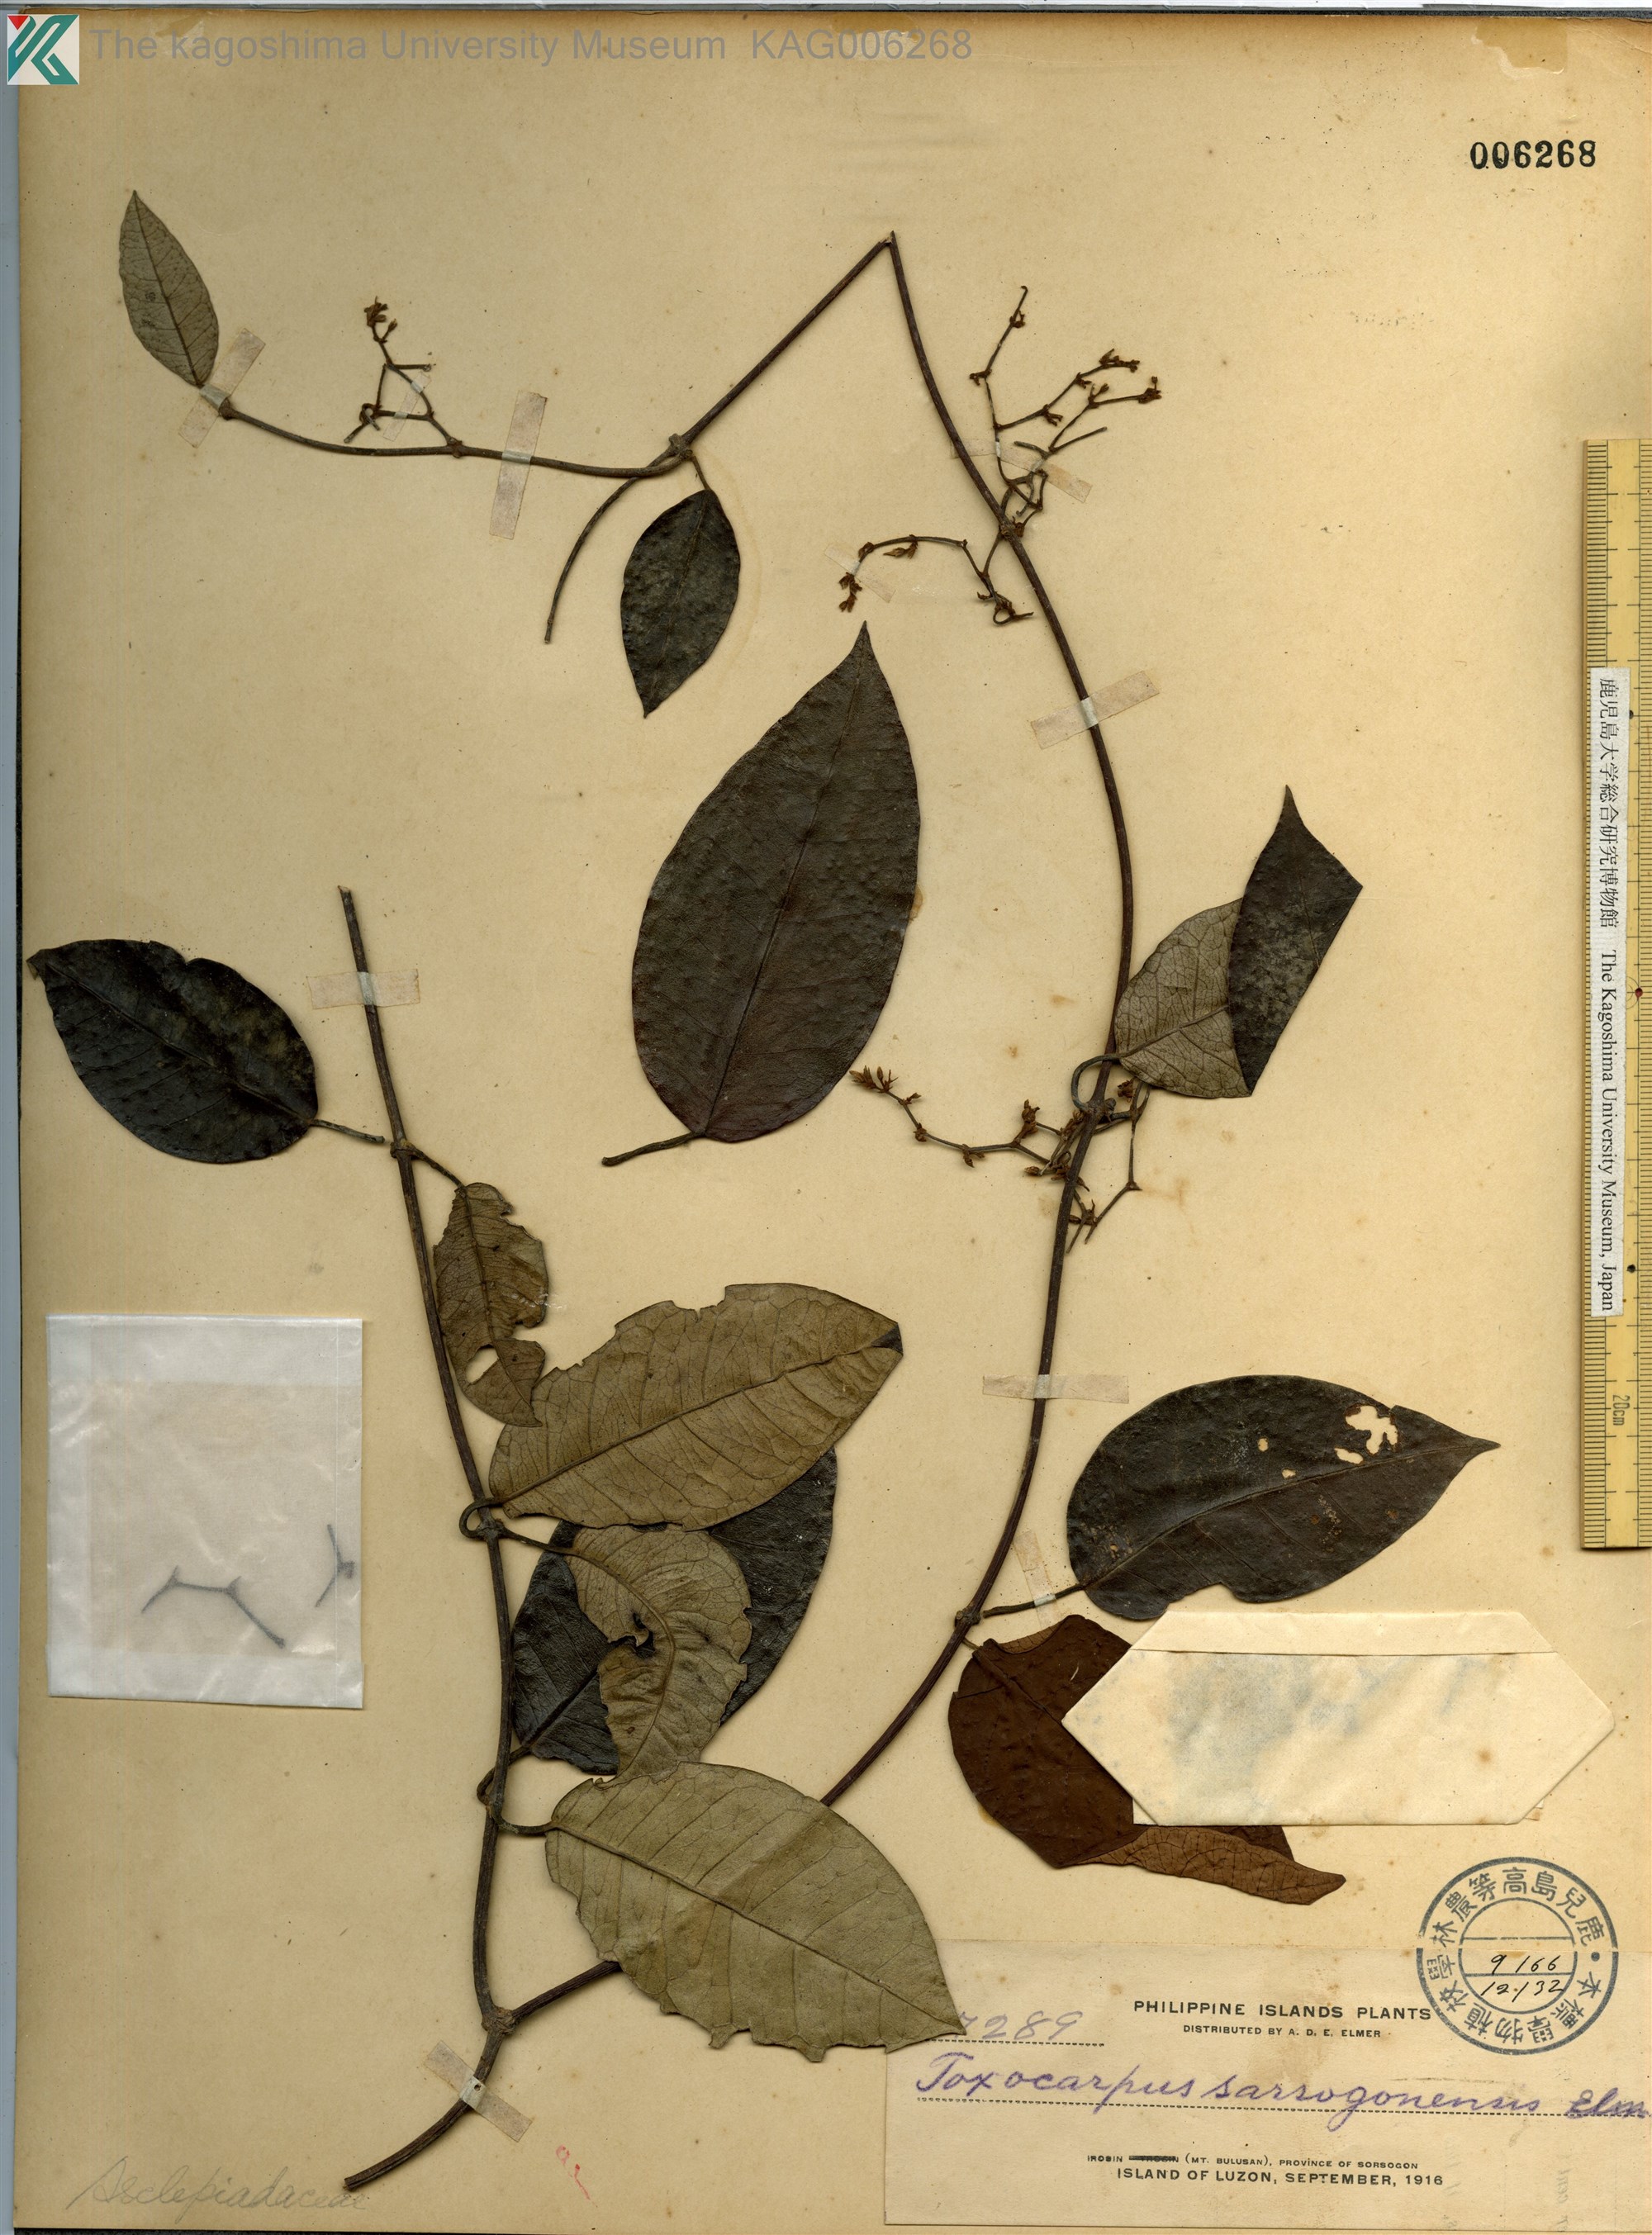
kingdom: Plantae
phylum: Tracheophyta
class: Magnoliopsida
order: Gentianales
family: Apocynaceae
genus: Toxocarpus
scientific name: Toxocarpus
